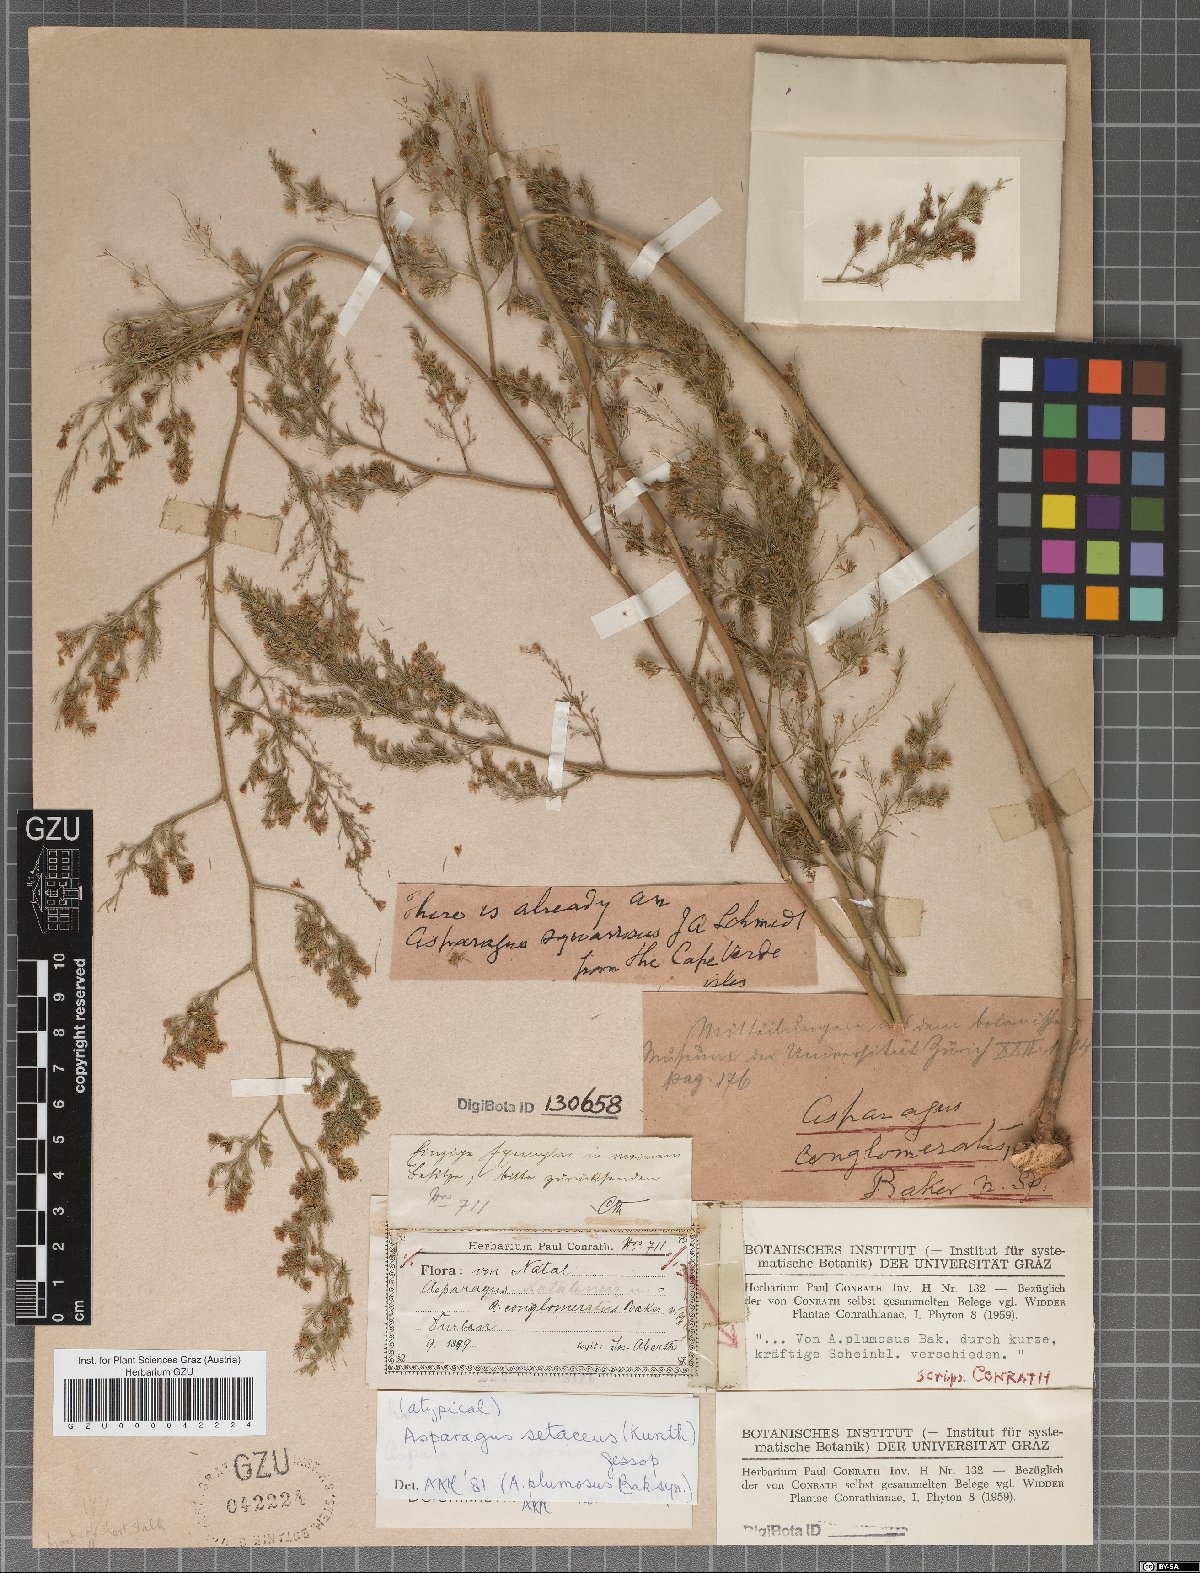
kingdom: Plantae
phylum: Tracheophyta
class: Liliopsida
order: Asparagales
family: Asparagaceae
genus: Asparagus
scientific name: Asparagus africanus
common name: Asparagus-fern
